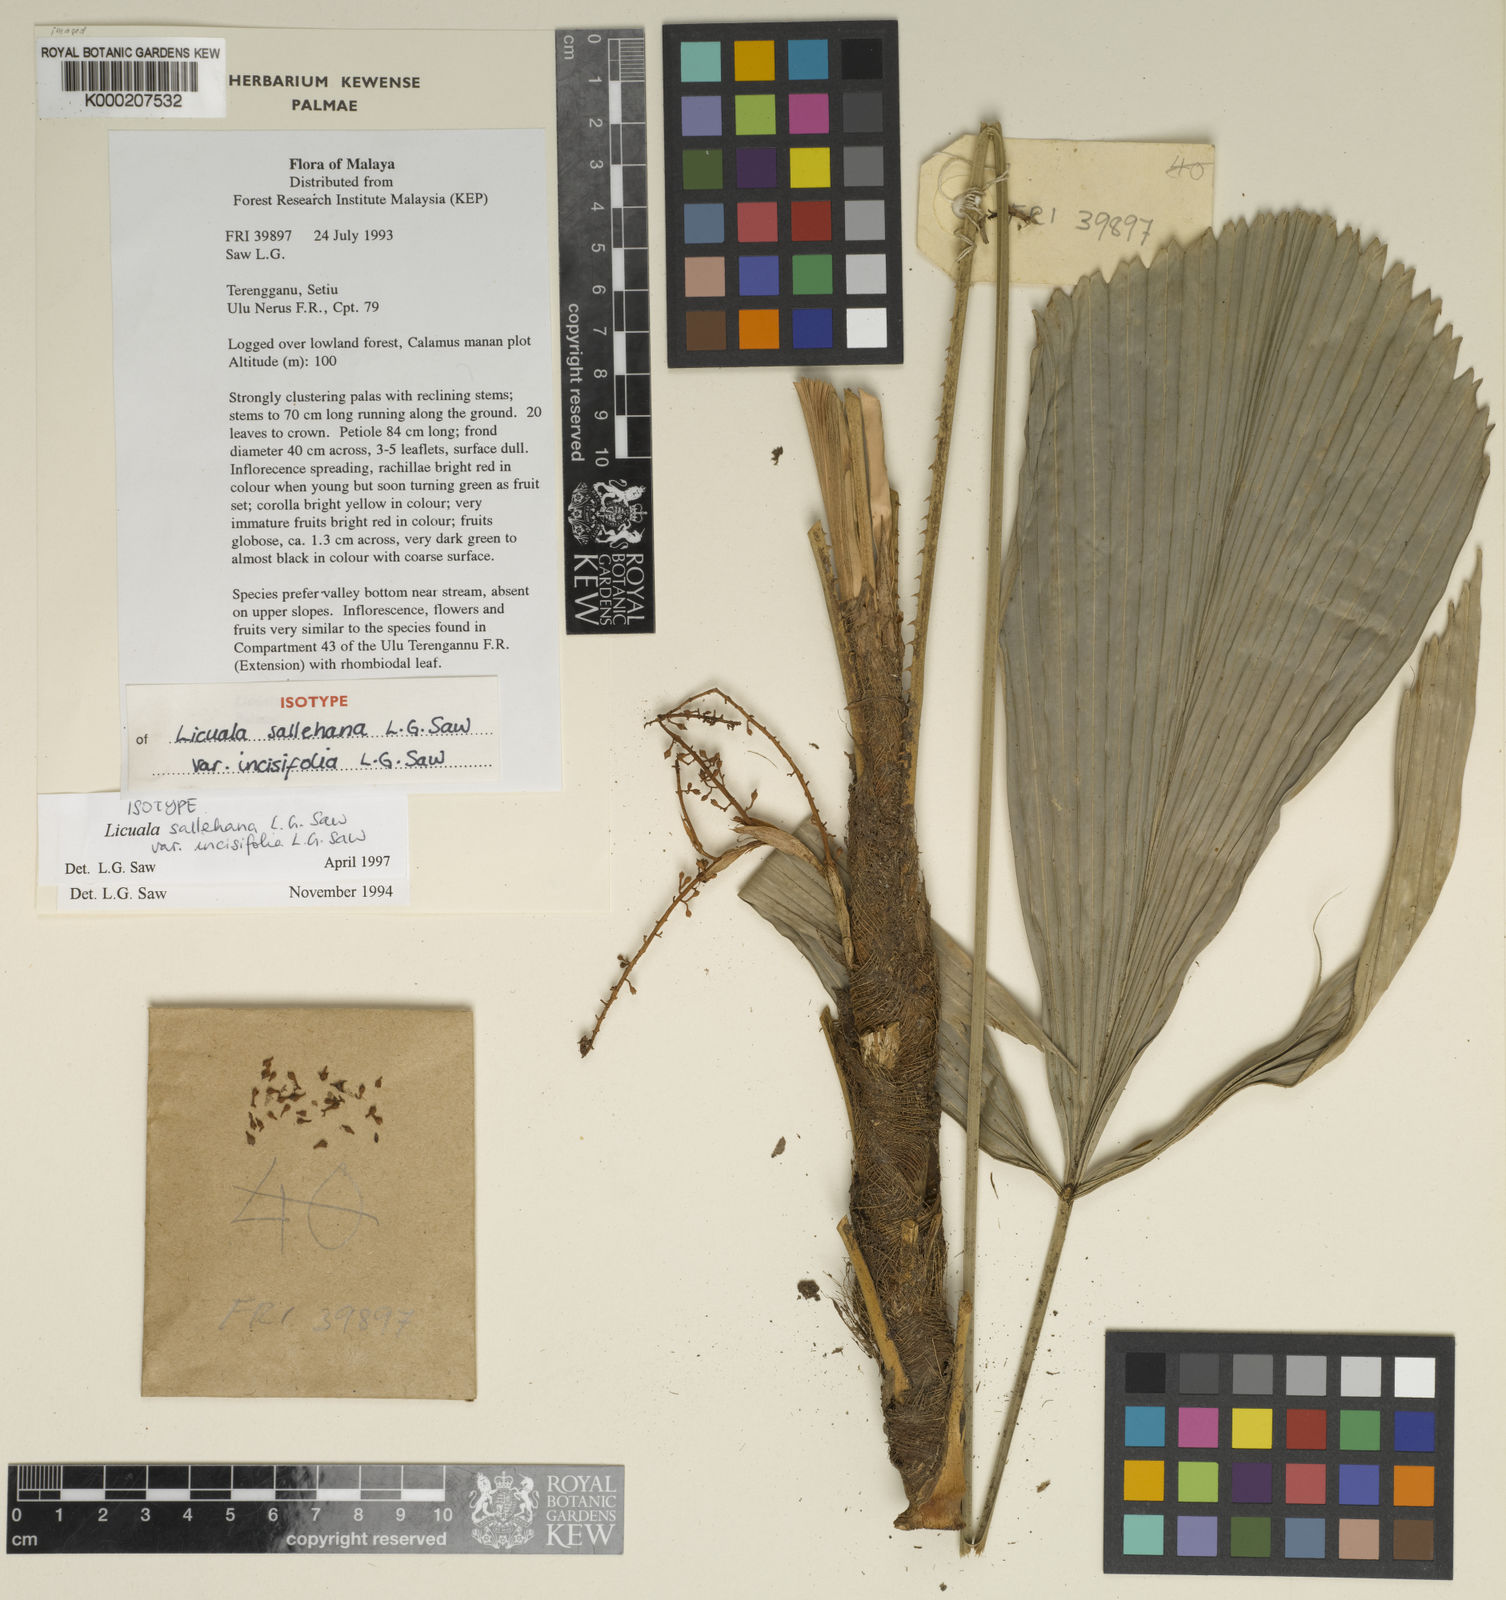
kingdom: Plantae
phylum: Tracheophyta
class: Liliopsida
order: Arecales
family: Arecaceae
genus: Licuala
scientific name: Licuala sallehana
